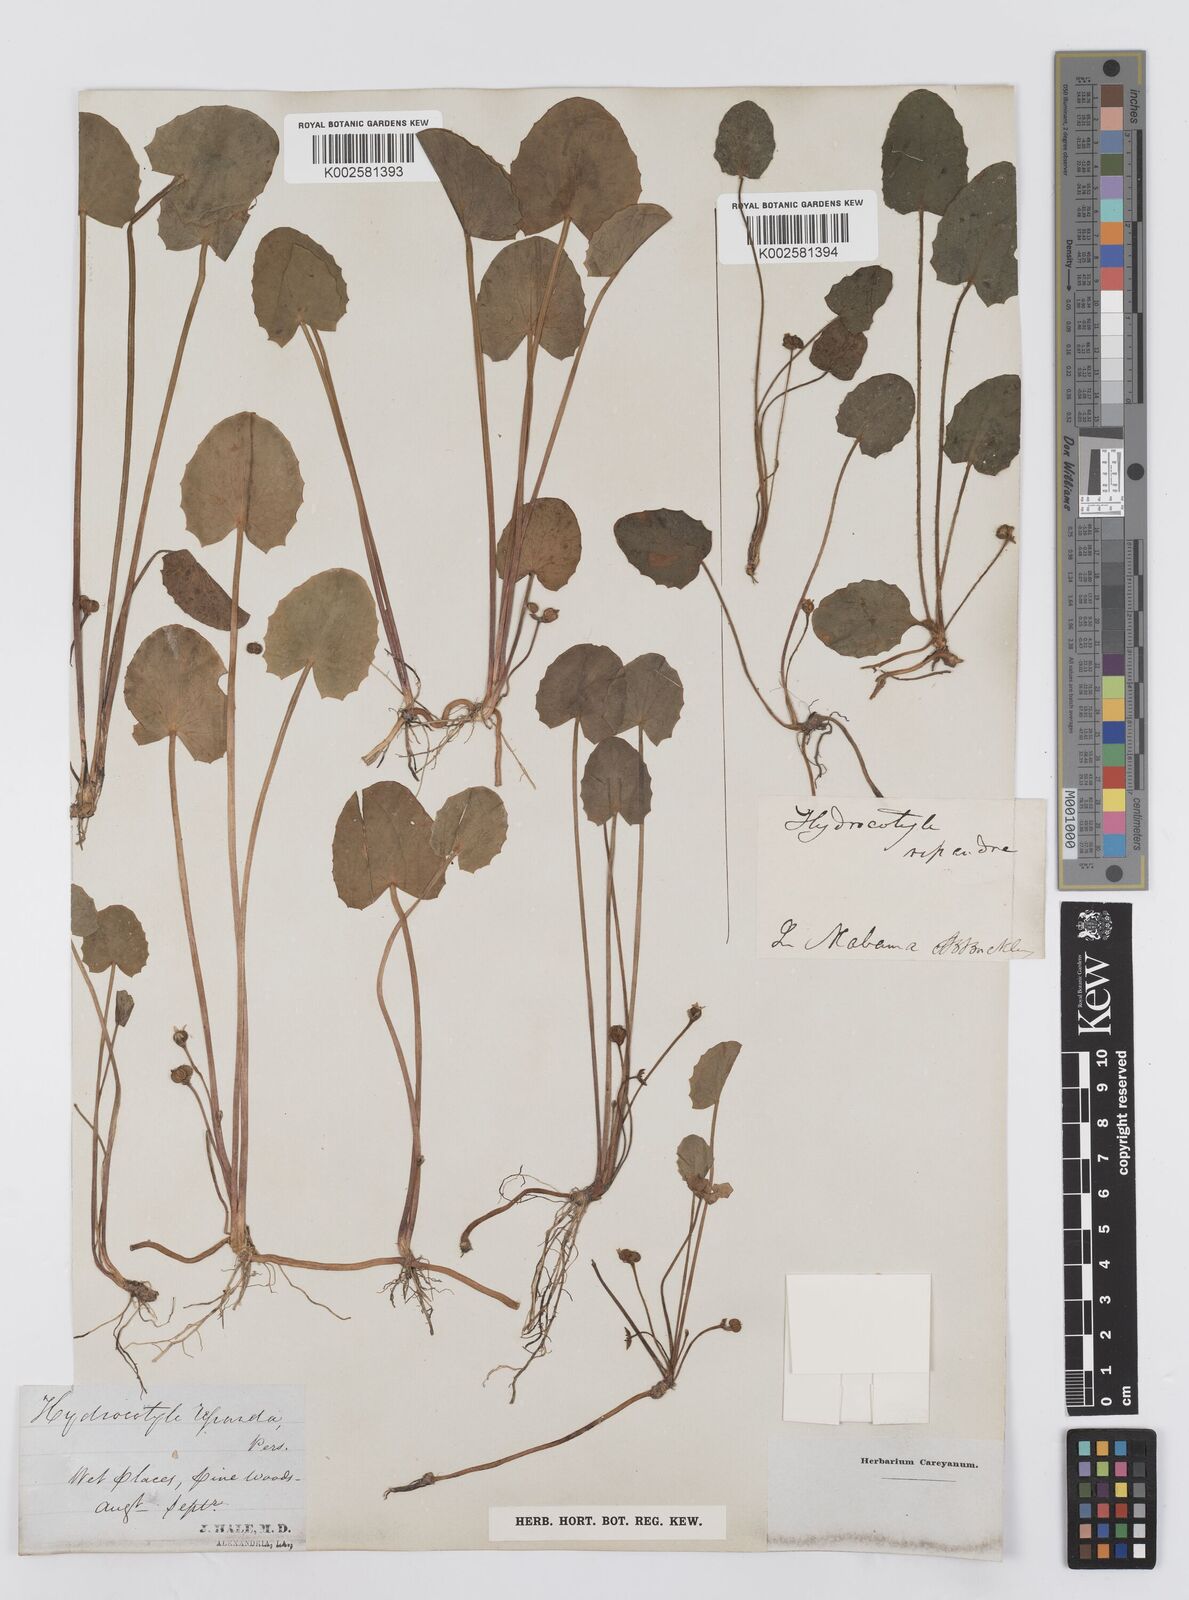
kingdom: Plantae
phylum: Tracheophyta
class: Magnoliopsida
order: Apiales
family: Apiaceae
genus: Centella
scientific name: Centella erecta
